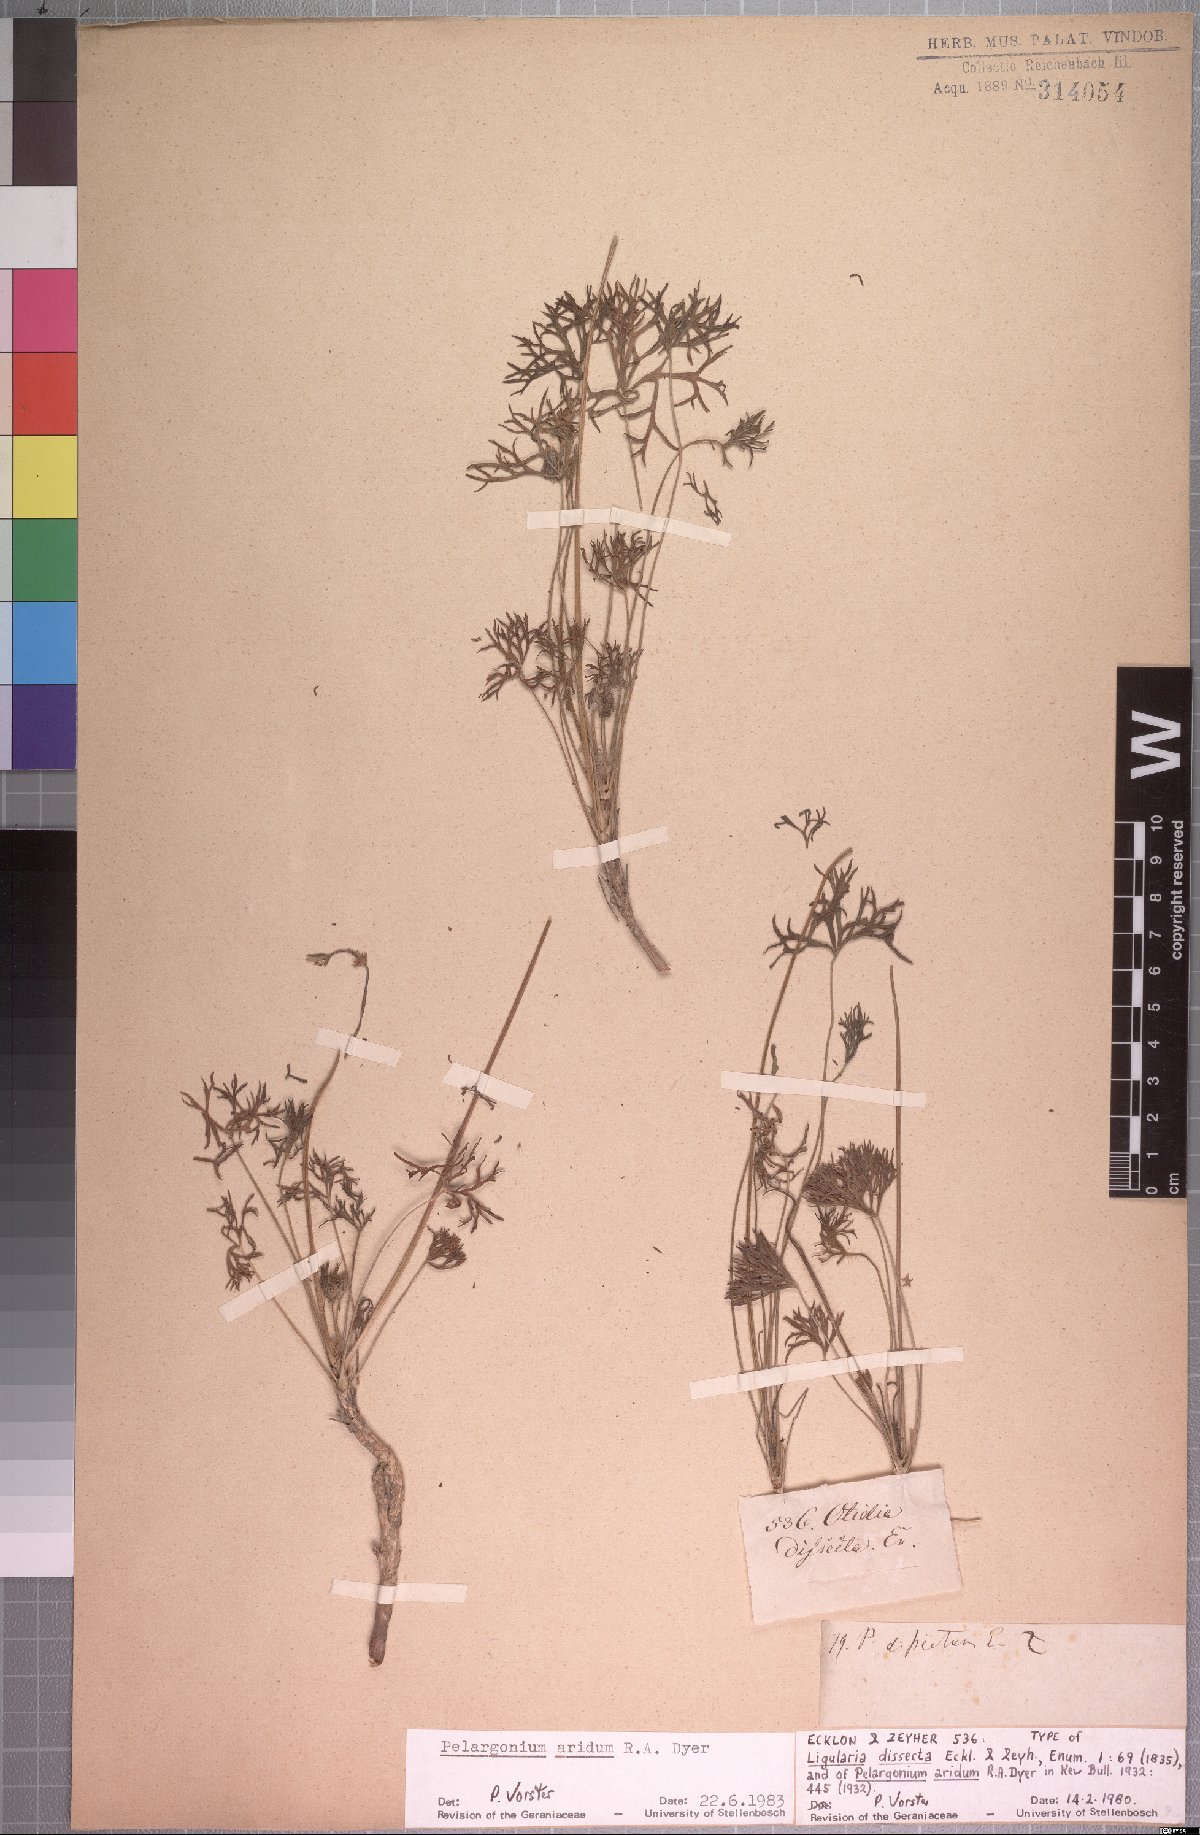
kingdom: Plantae
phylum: Tracheophyta
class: Magnoliopsida
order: Geraniales
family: Geraniaceae
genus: Pelargonium
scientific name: Pelargonium aridum
